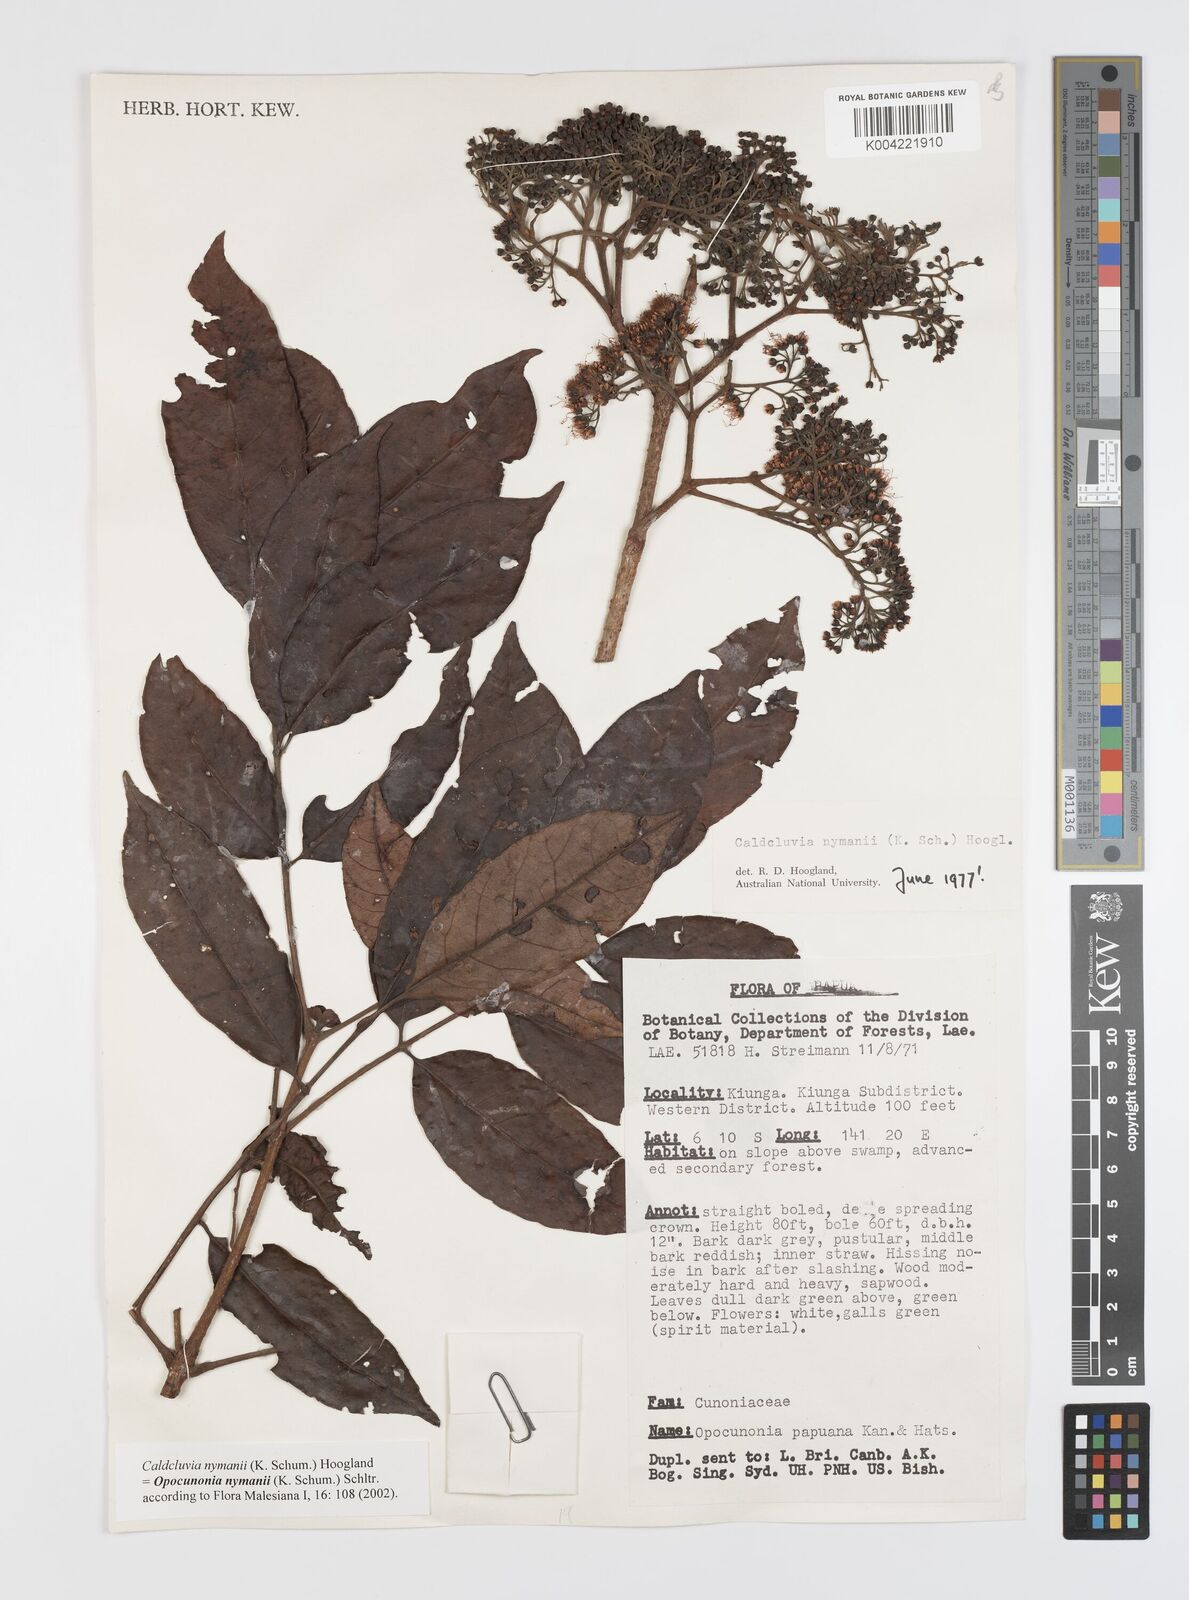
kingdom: Plantae
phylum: Tracheophyta
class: Magnoliopsida
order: Oxalidales
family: Cunoniaceae
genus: Opocunonia
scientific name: Opocunonia nymanii
